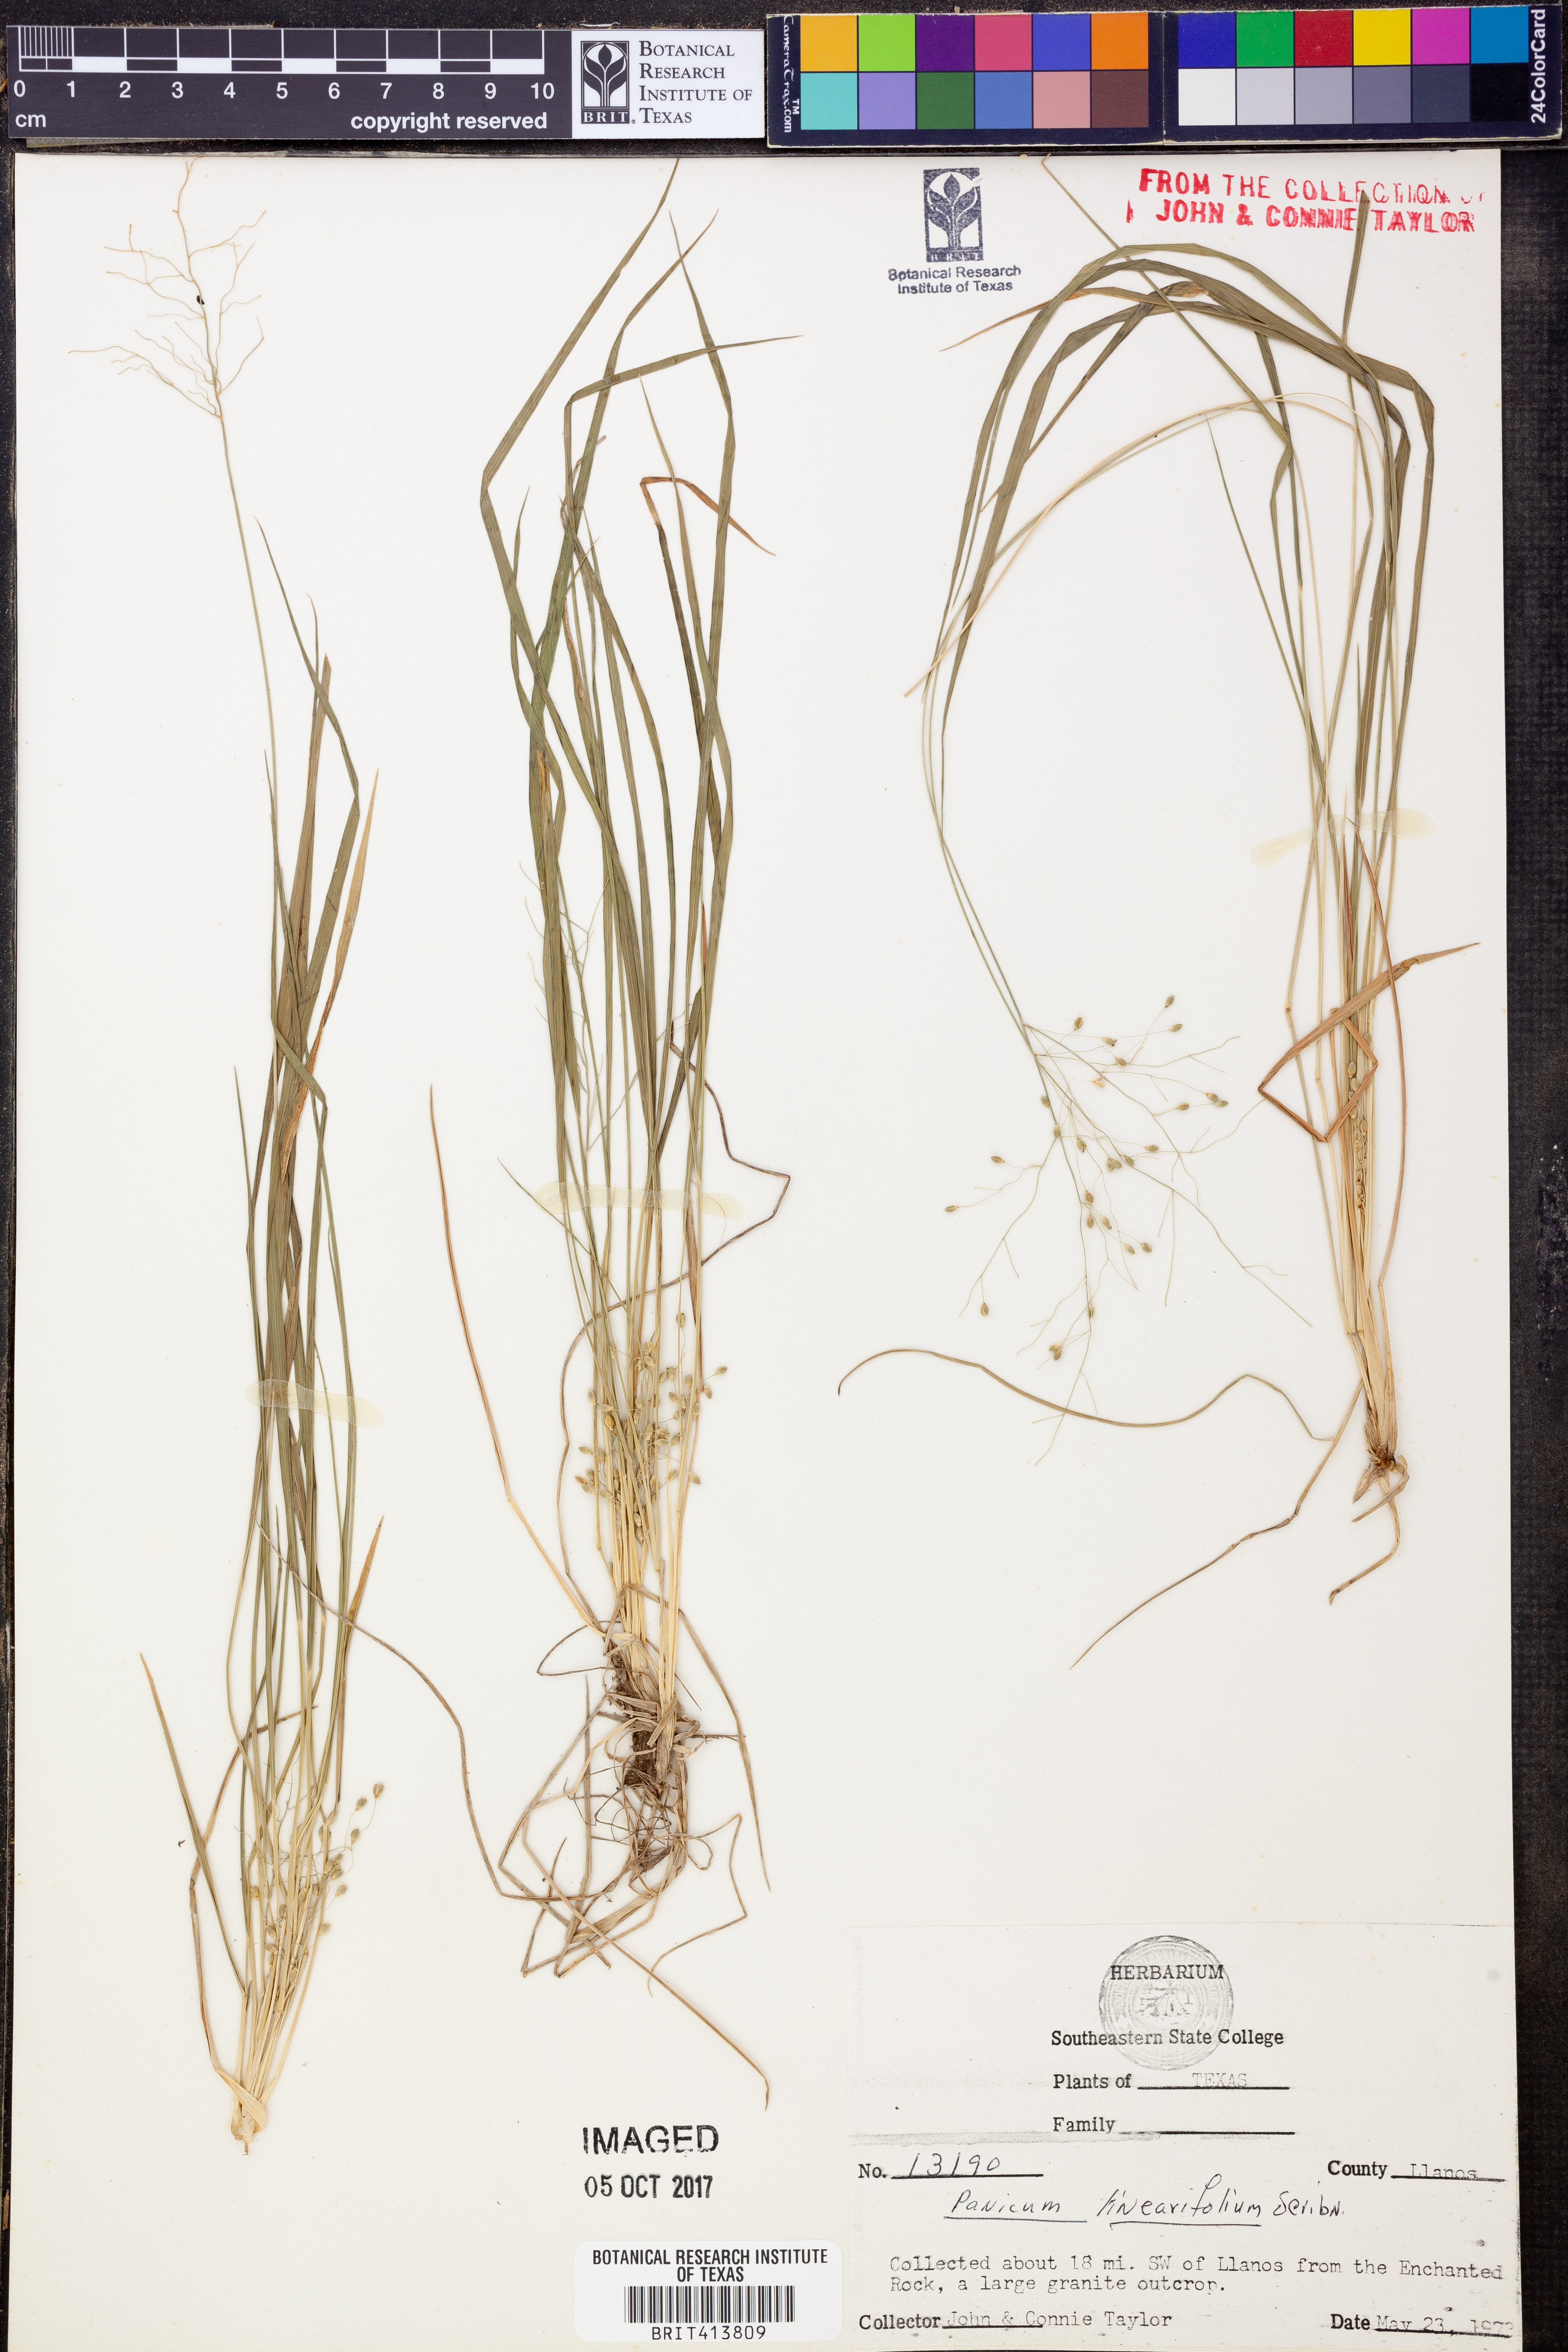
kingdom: Plantae
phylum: Tracheophyta
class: Liliopsida
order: Poales
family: Poaceae
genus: Dichanthelium
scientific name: Dichanthelium linearifolium
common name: Linear-leaved panicgrass
